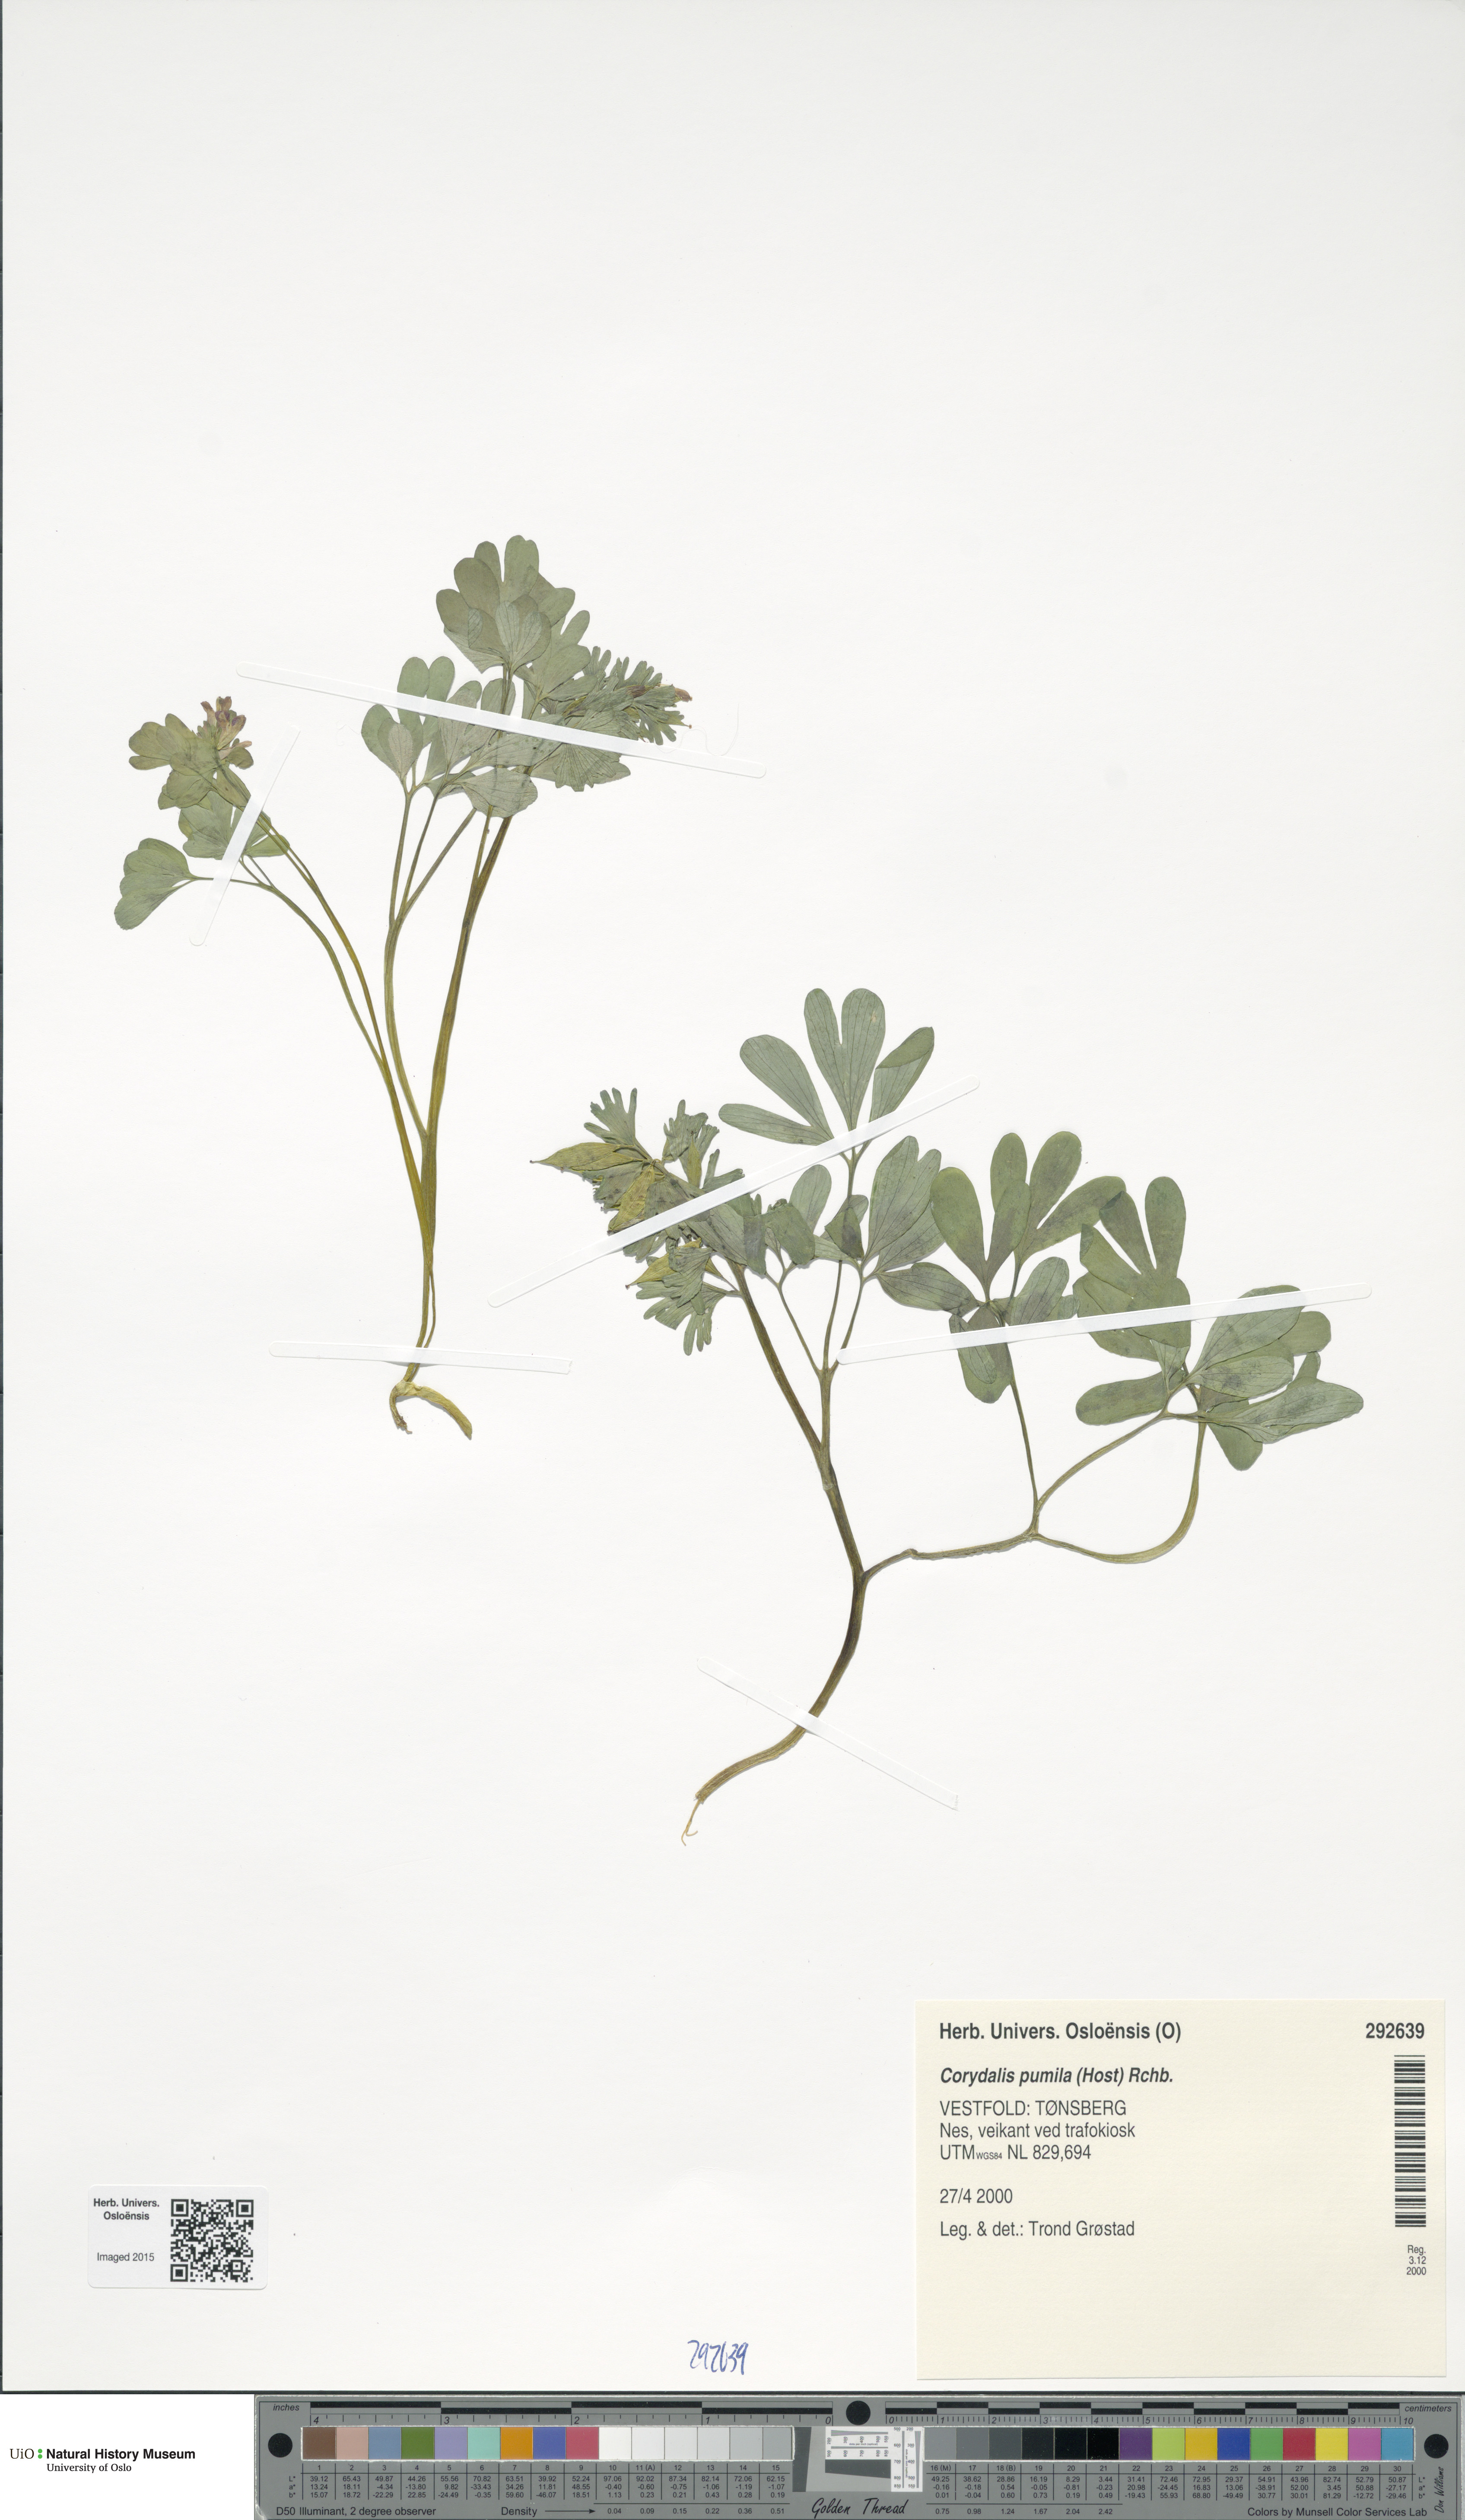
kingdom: Plantae
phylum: Tracheophyta
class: Magnoliopsida
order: Ranunculales
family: Papaveraceae
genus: Corydalis
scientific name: Corydalis pumila
